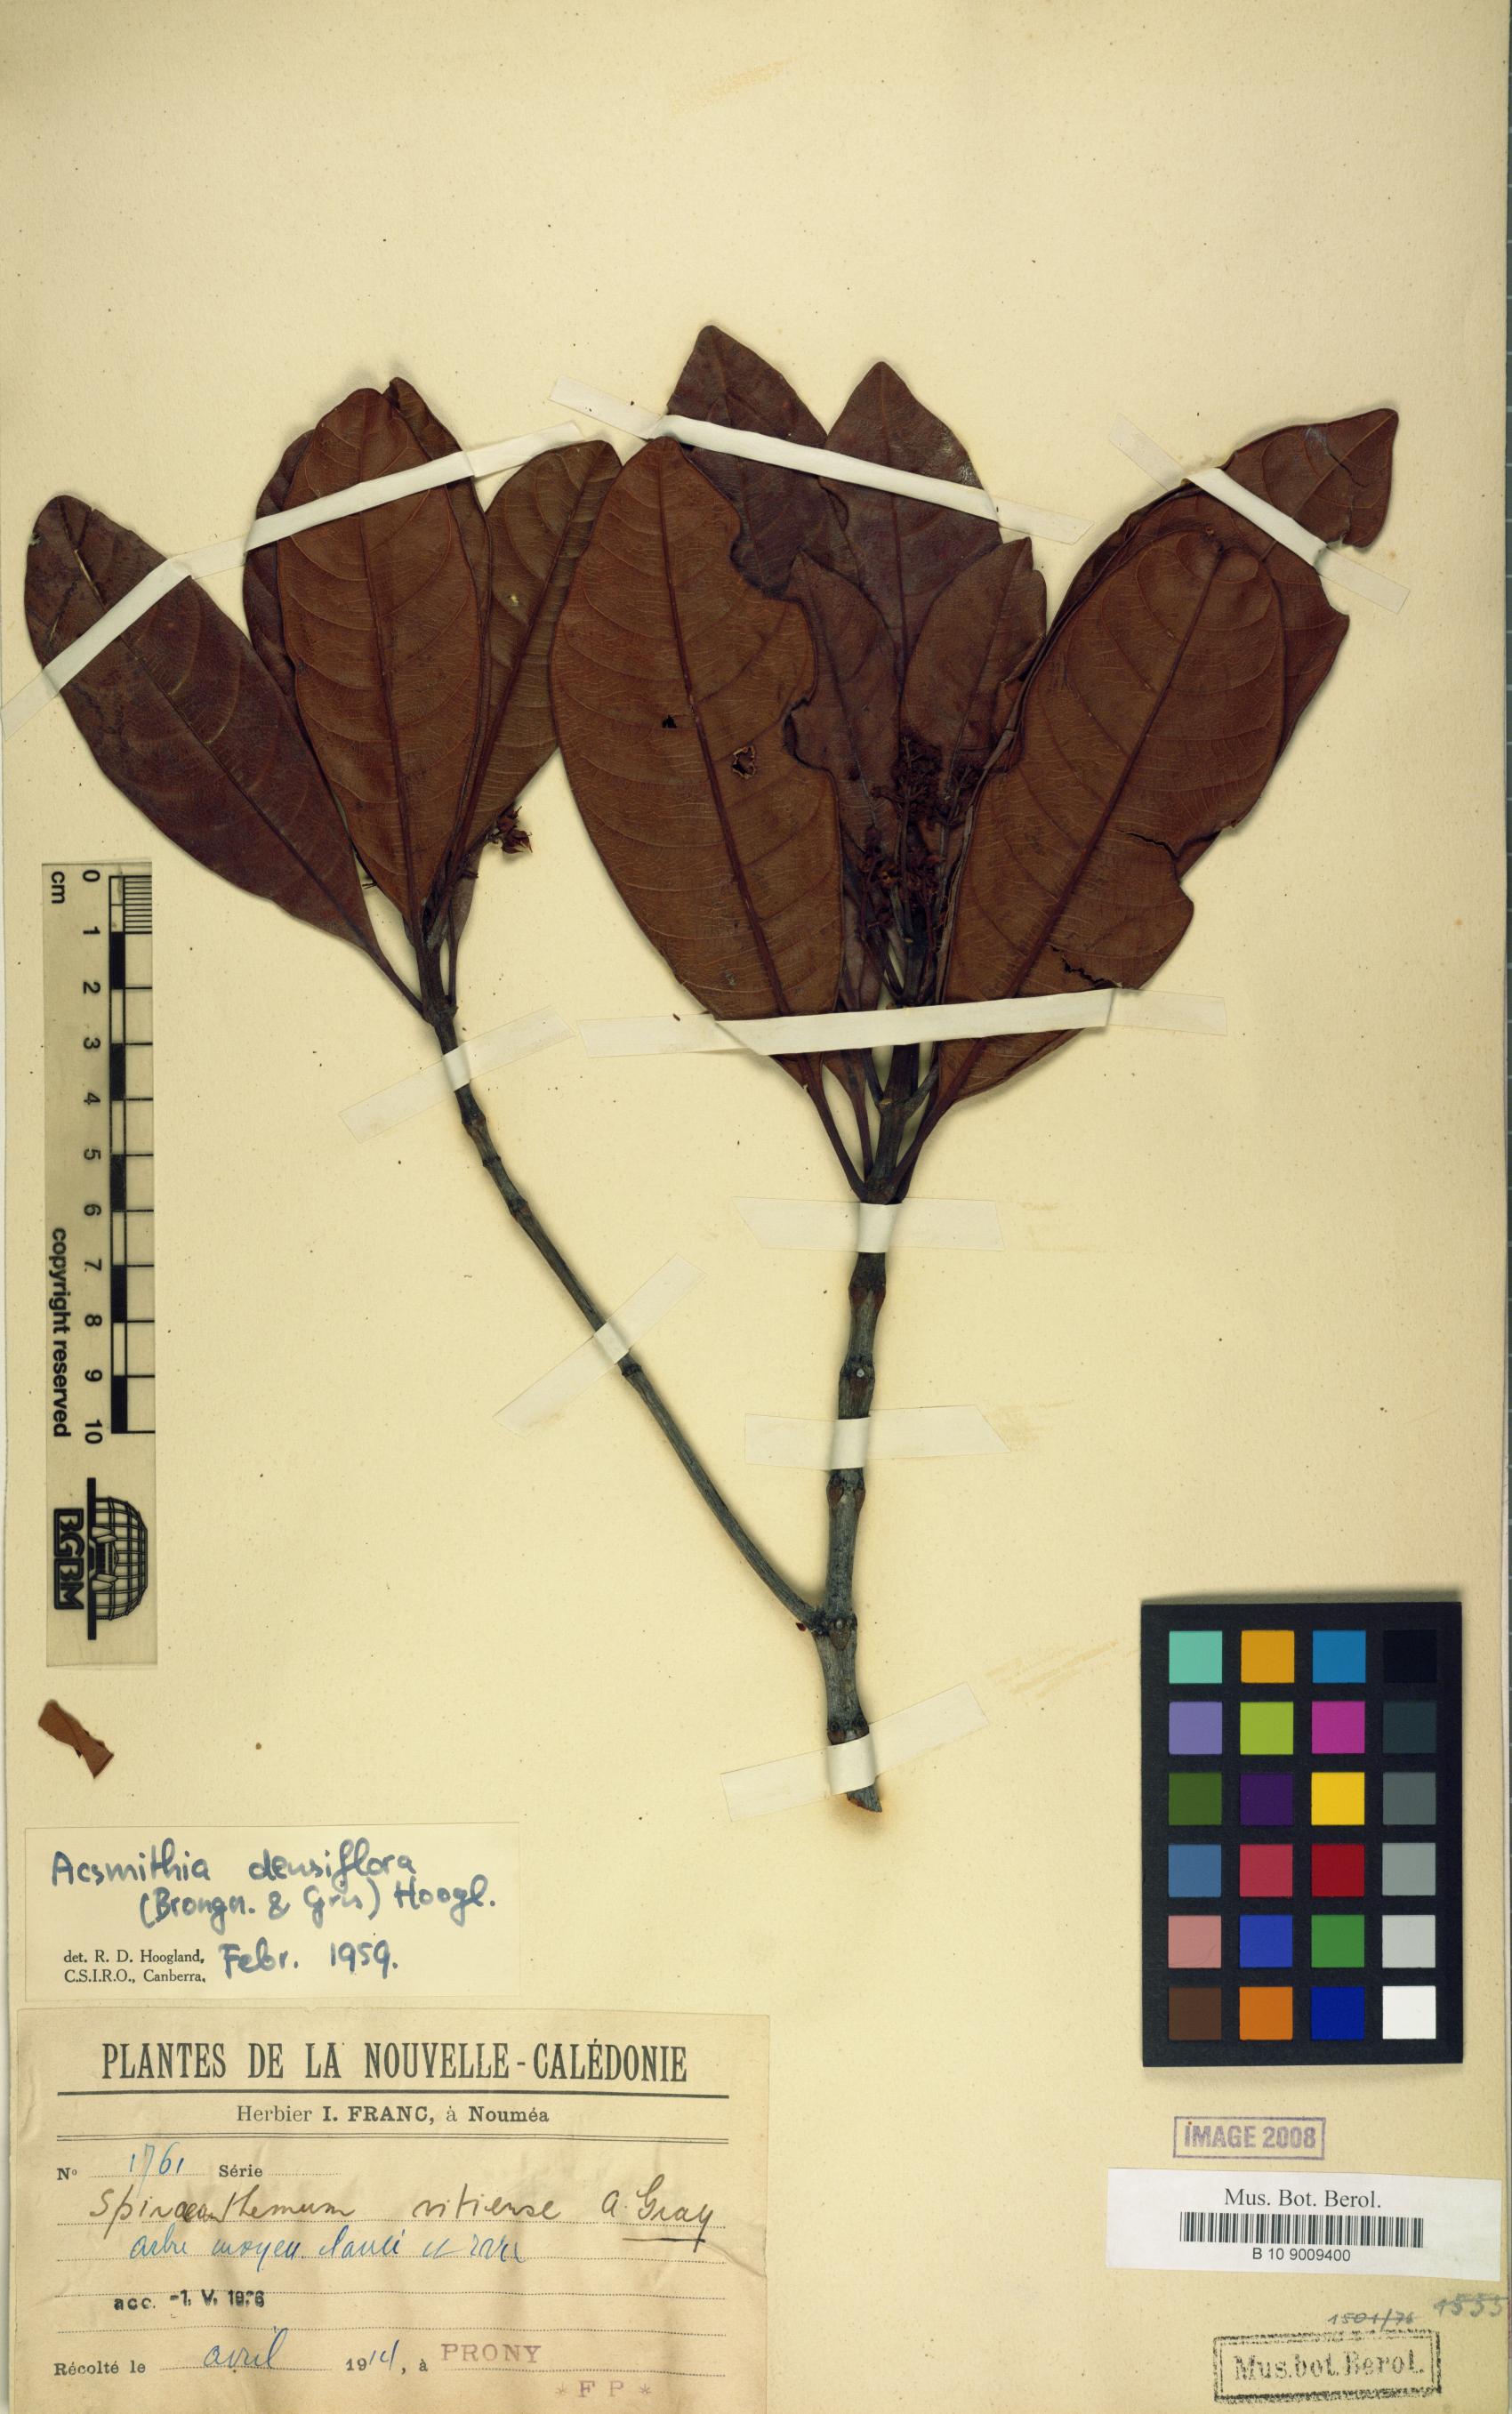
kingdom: Plantae
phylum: Tracheophyta
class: Magnoliopsida
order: Oxalidales
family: Cunoniaceae
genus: Spiraeanthemum
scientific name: Spiraeanthemum densiflorum
